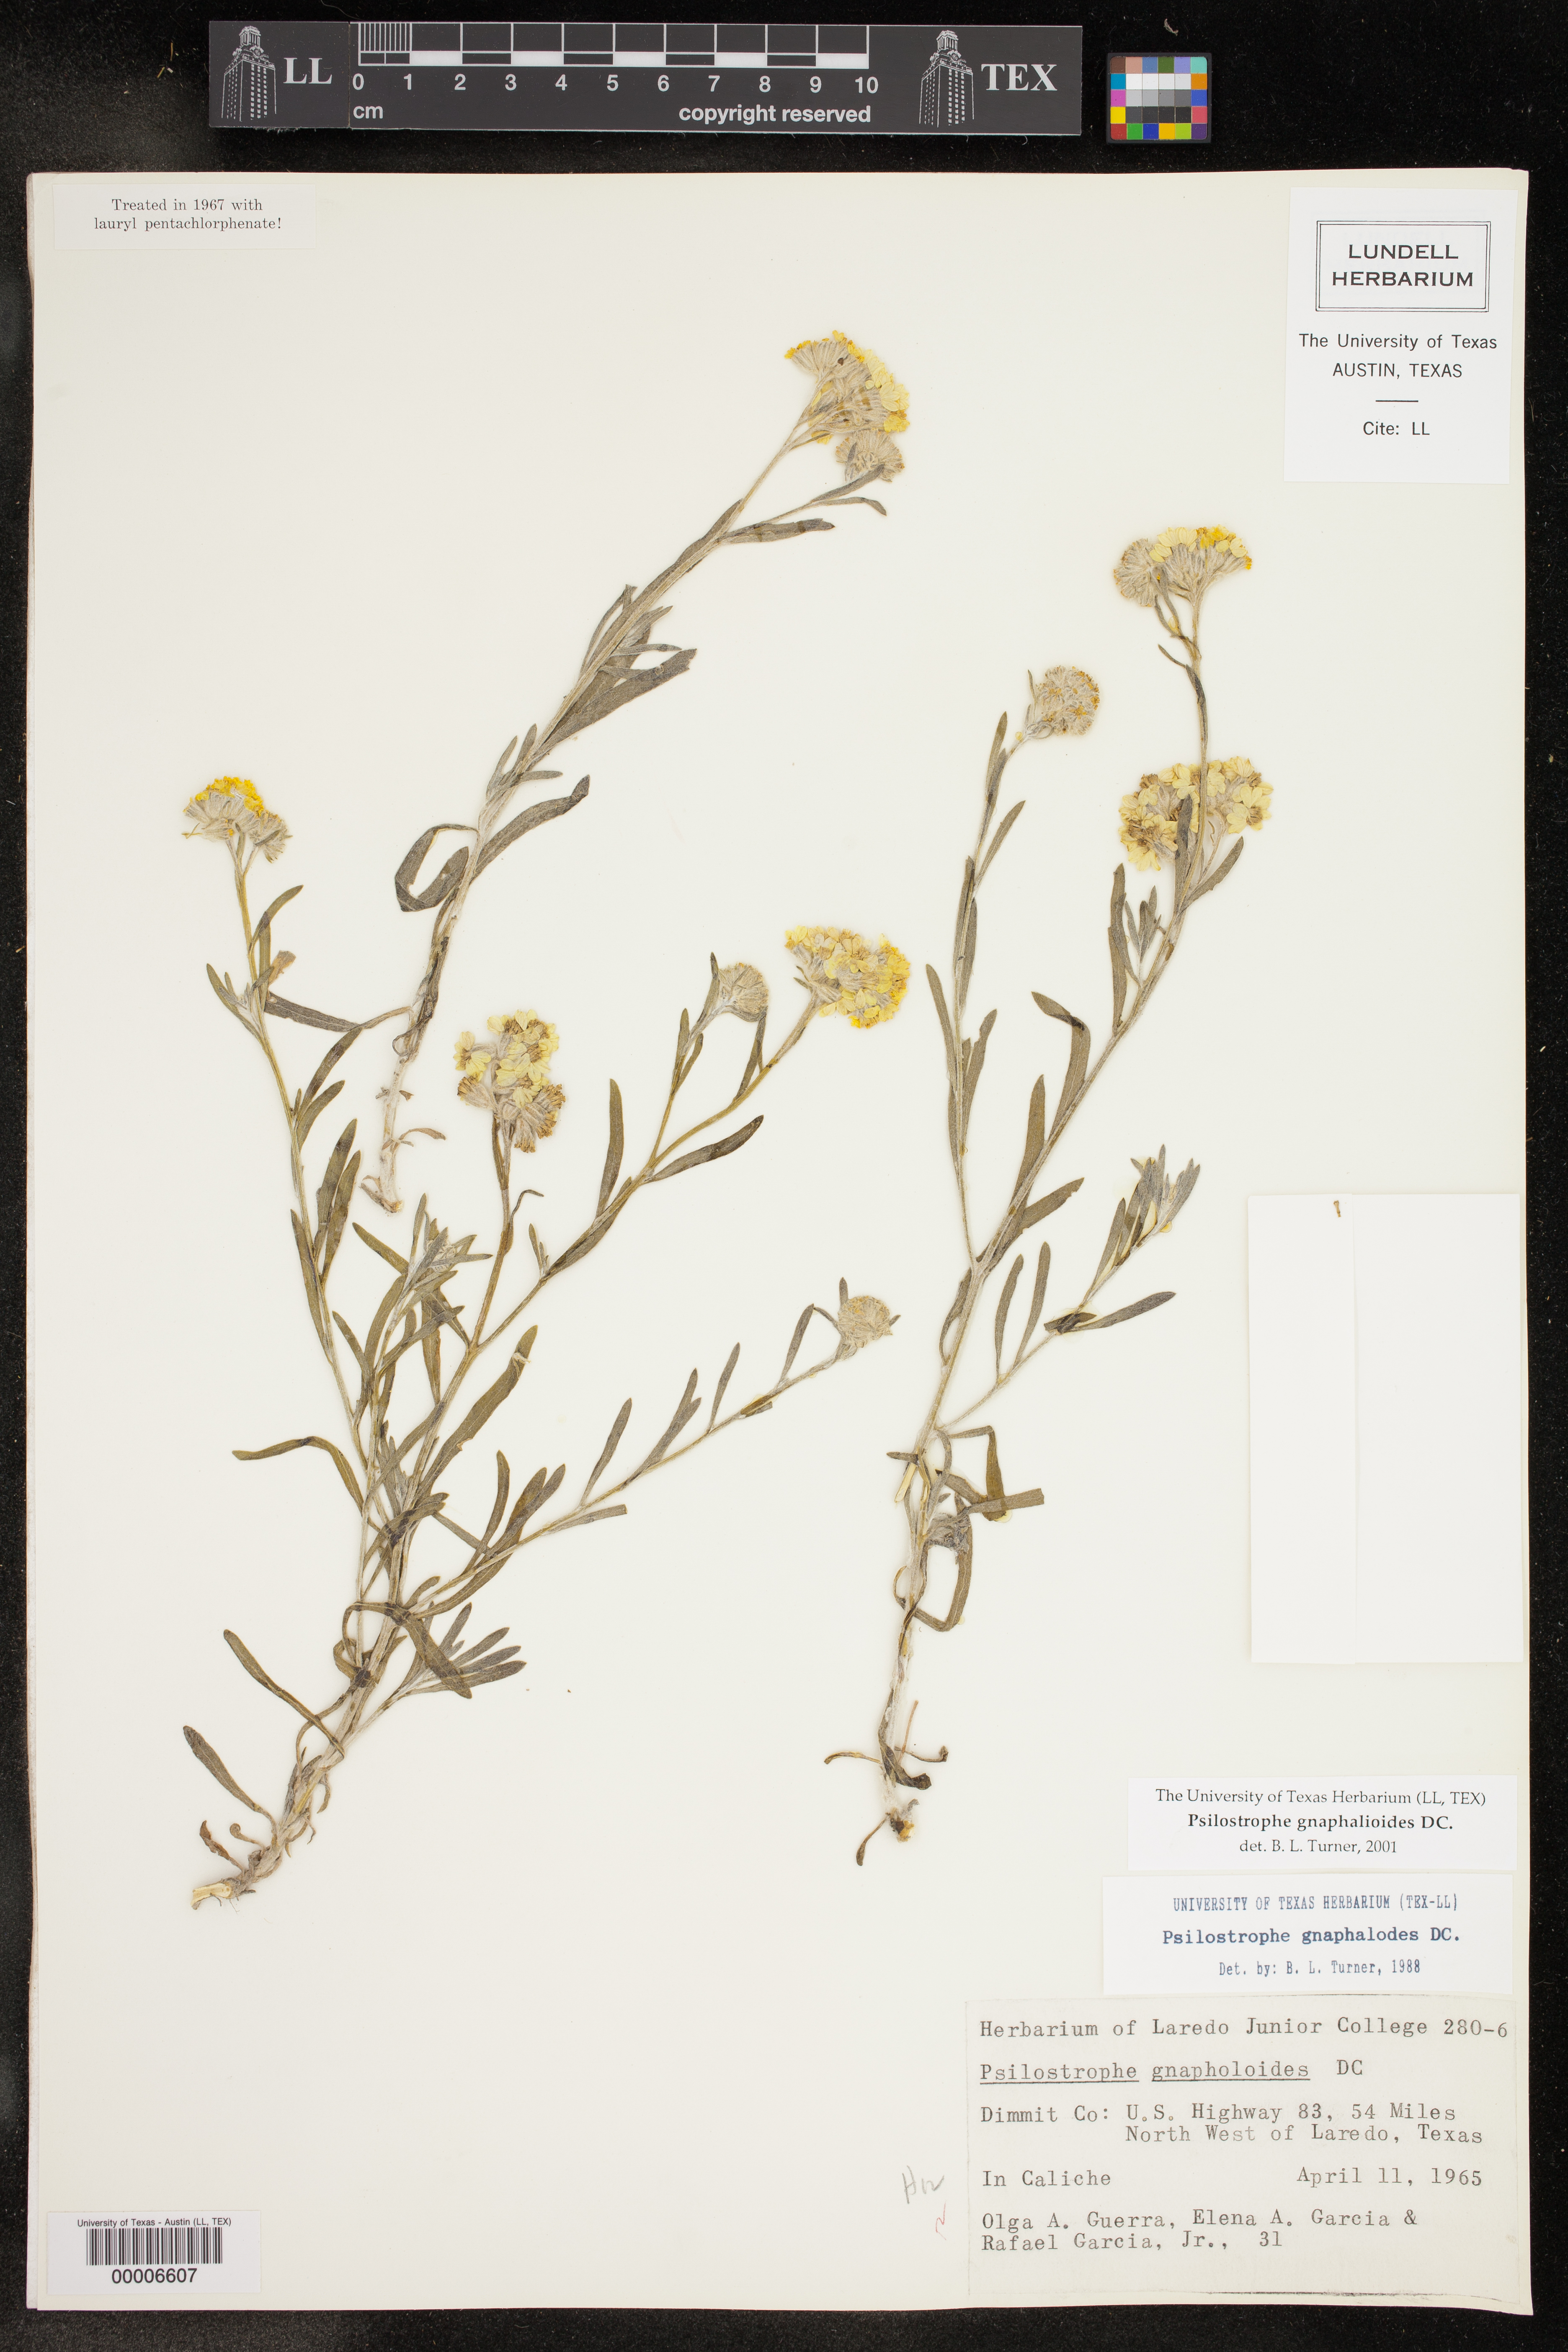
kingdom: Plantae
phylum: Tracheophyta
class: Magnoliopsida
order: Asterales
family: Asteraceae
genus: Psilostrophe
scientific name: Psilostrophe gnaphalioides
